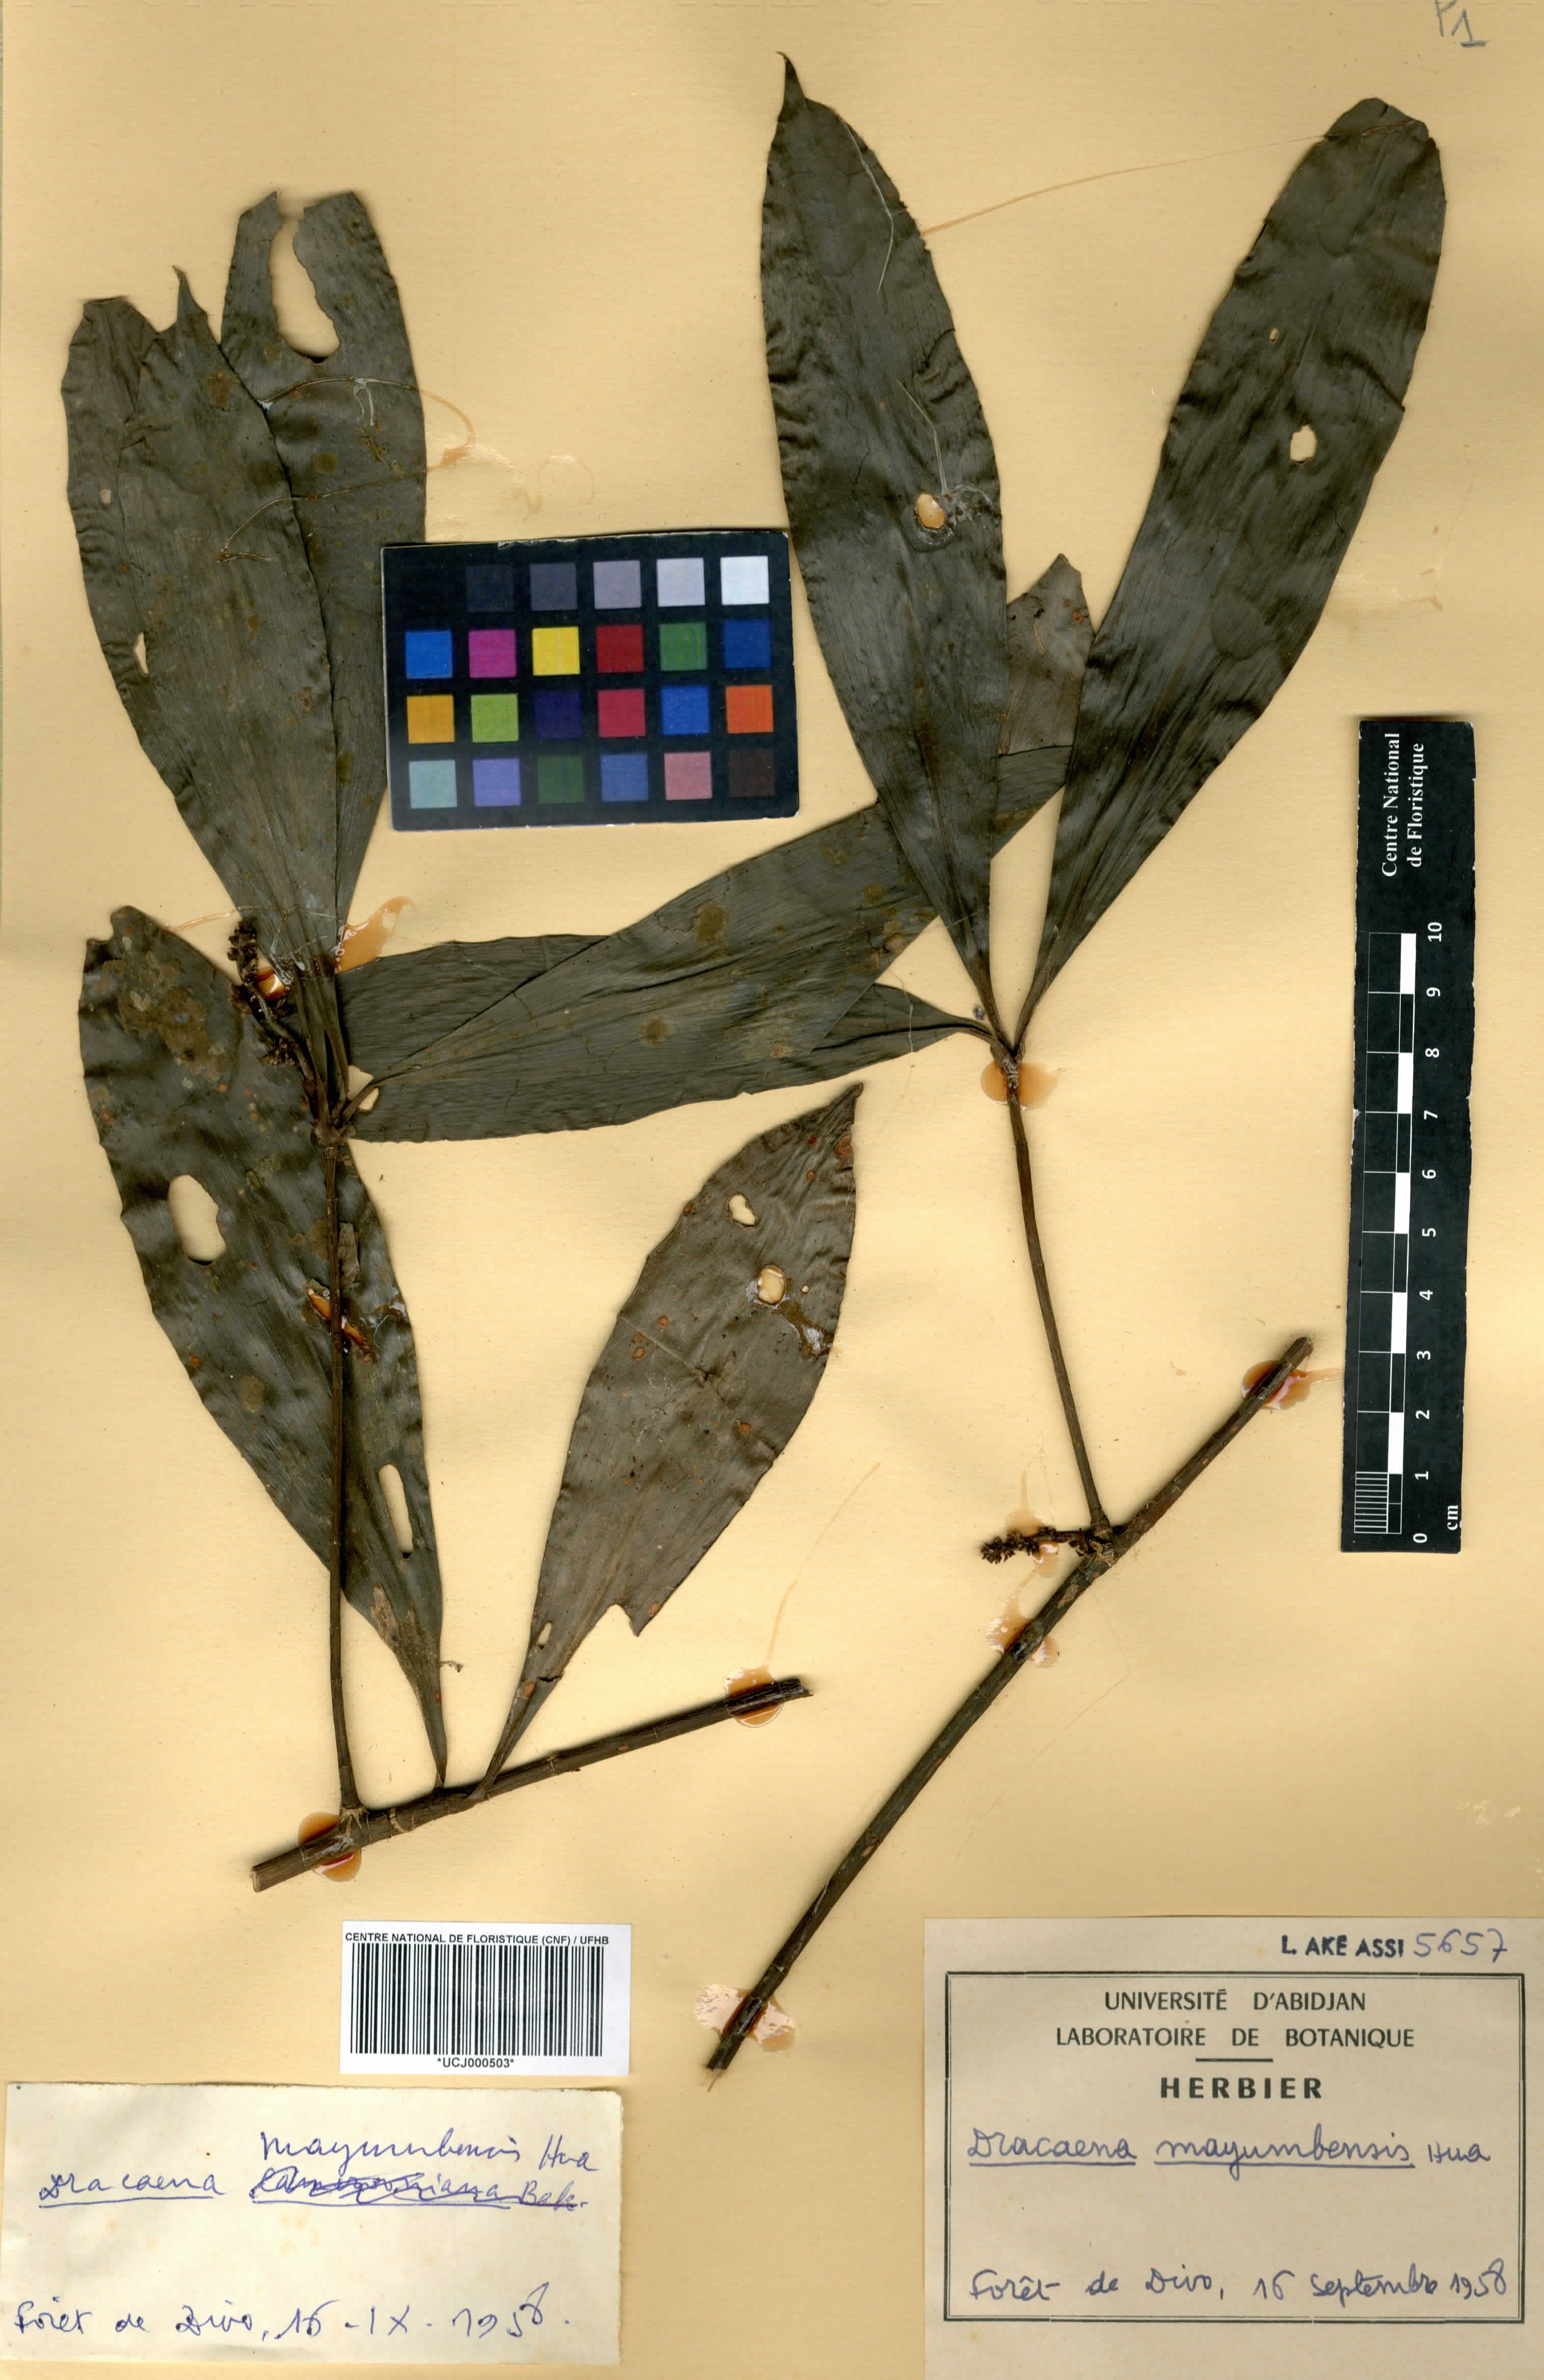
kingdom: Plantae
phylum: Tracheophyta
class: Liliopsida
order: Asparagales
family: Asparagaceae
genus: Dracaena
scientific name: Dracaena camerooniana
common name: Dragon tree
